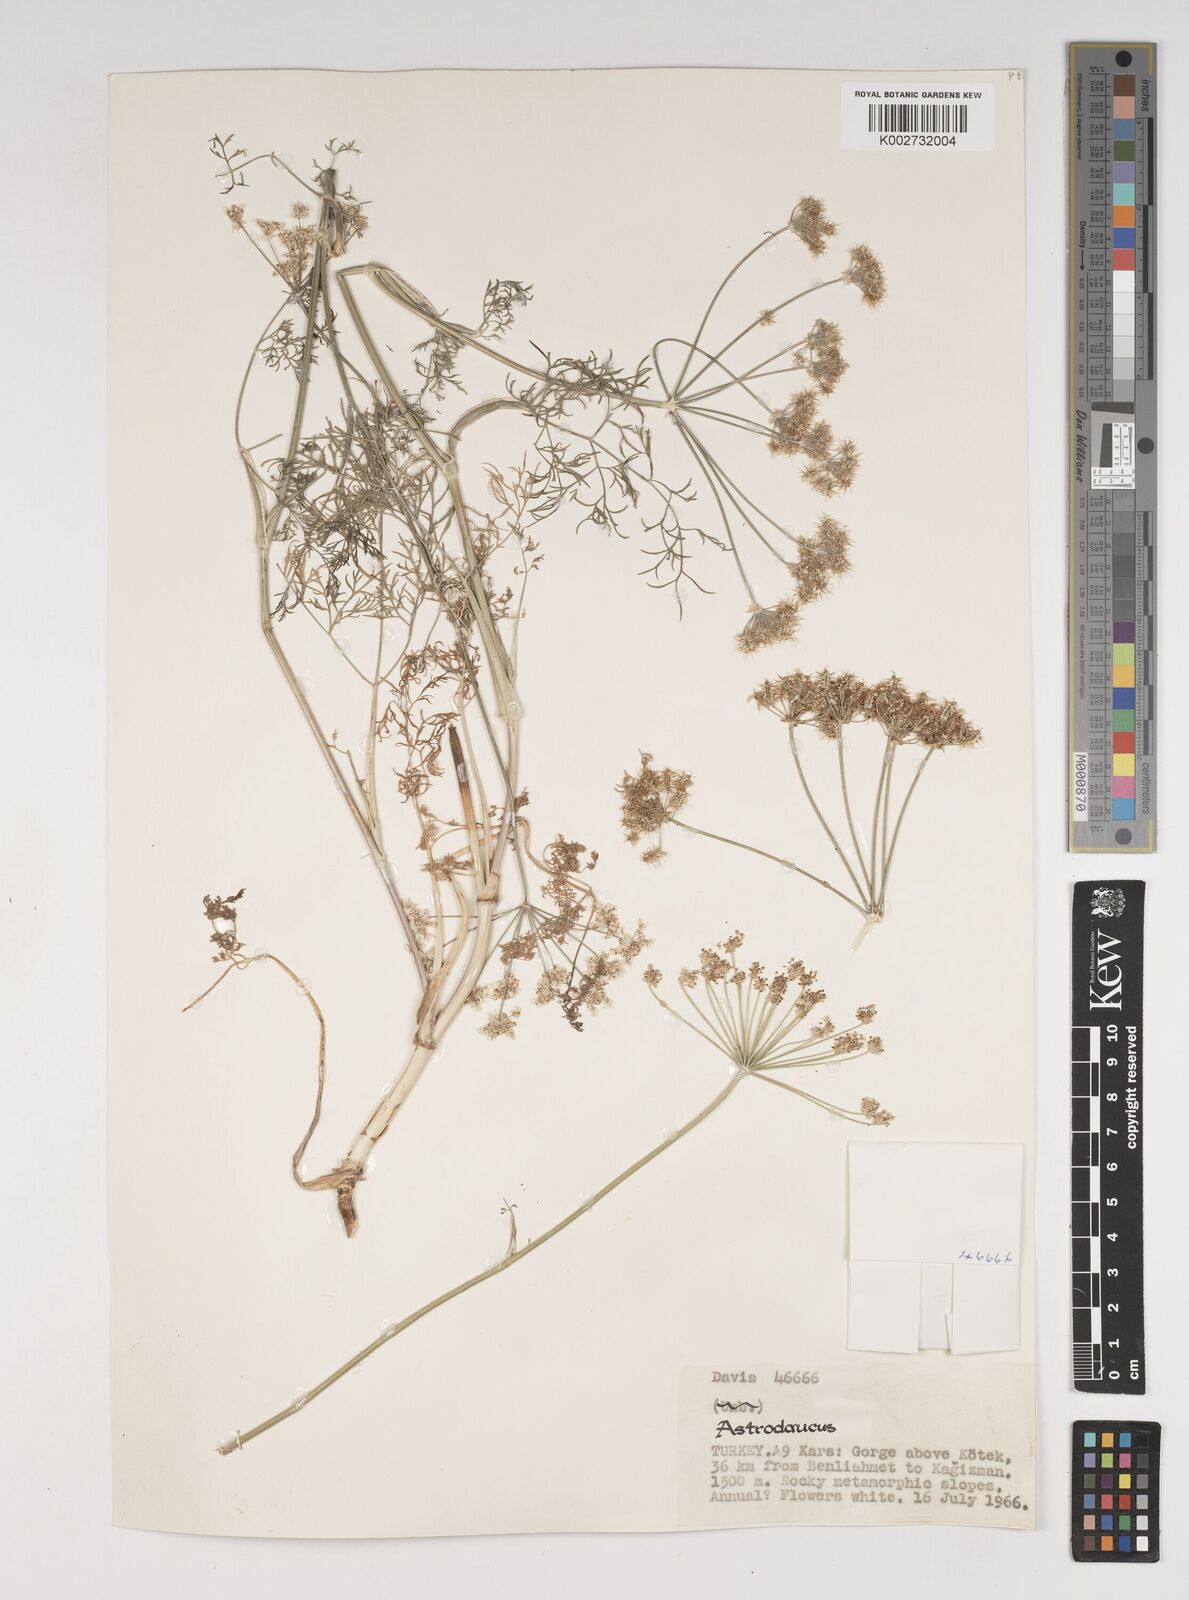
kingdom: Plantae
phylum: Tracheophyta
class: Magnoliopsida
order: Apiales
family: Apiaceae
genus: Astrodaucus
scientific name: Astrodaucus
